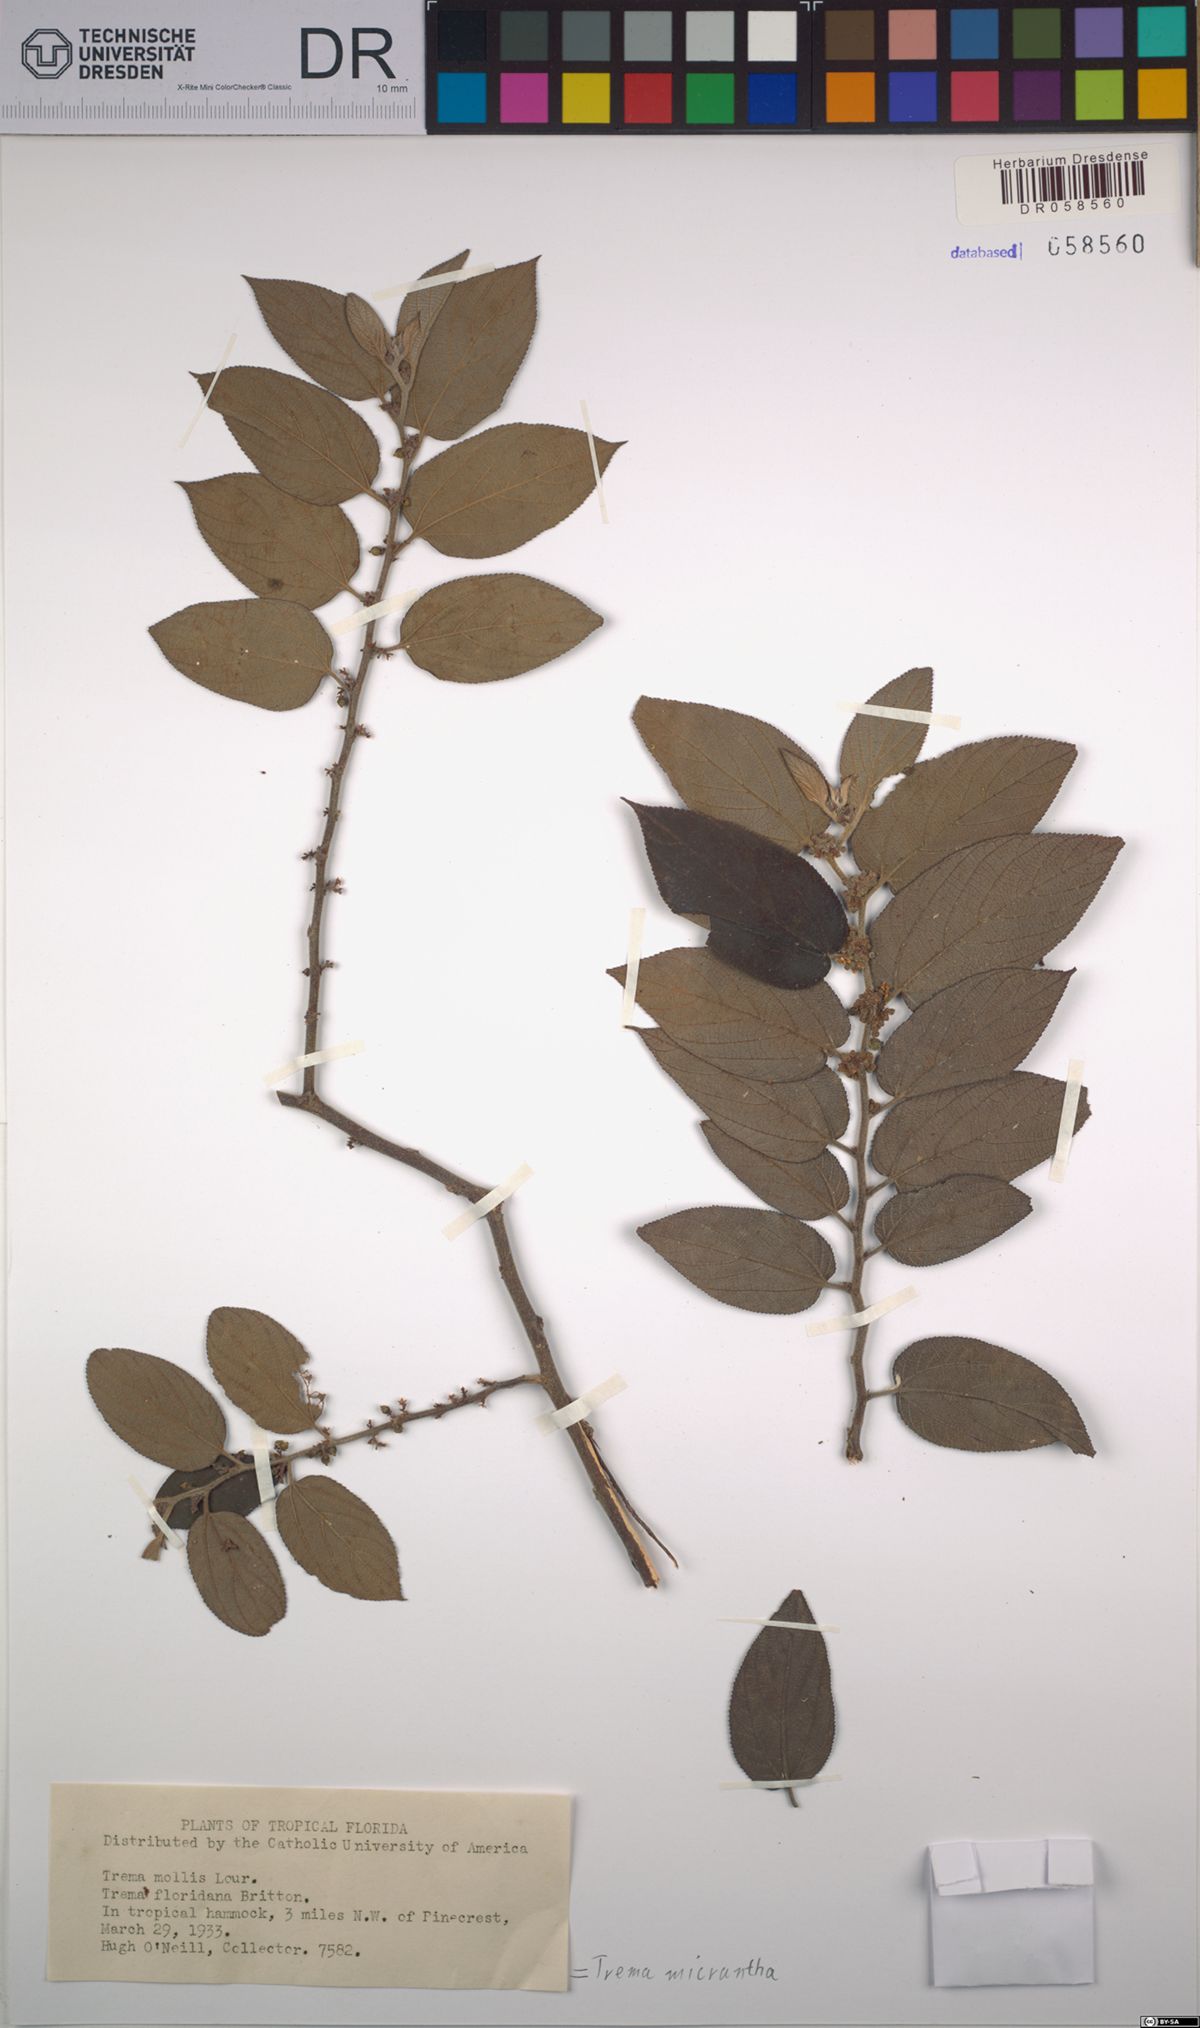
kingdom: Plantae
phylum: Tracheophyta
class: Magnoliopsida
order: Rosales
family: Cannabaceae
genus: Trema
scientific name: Trema micranthum
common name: Jamaican nettletree
